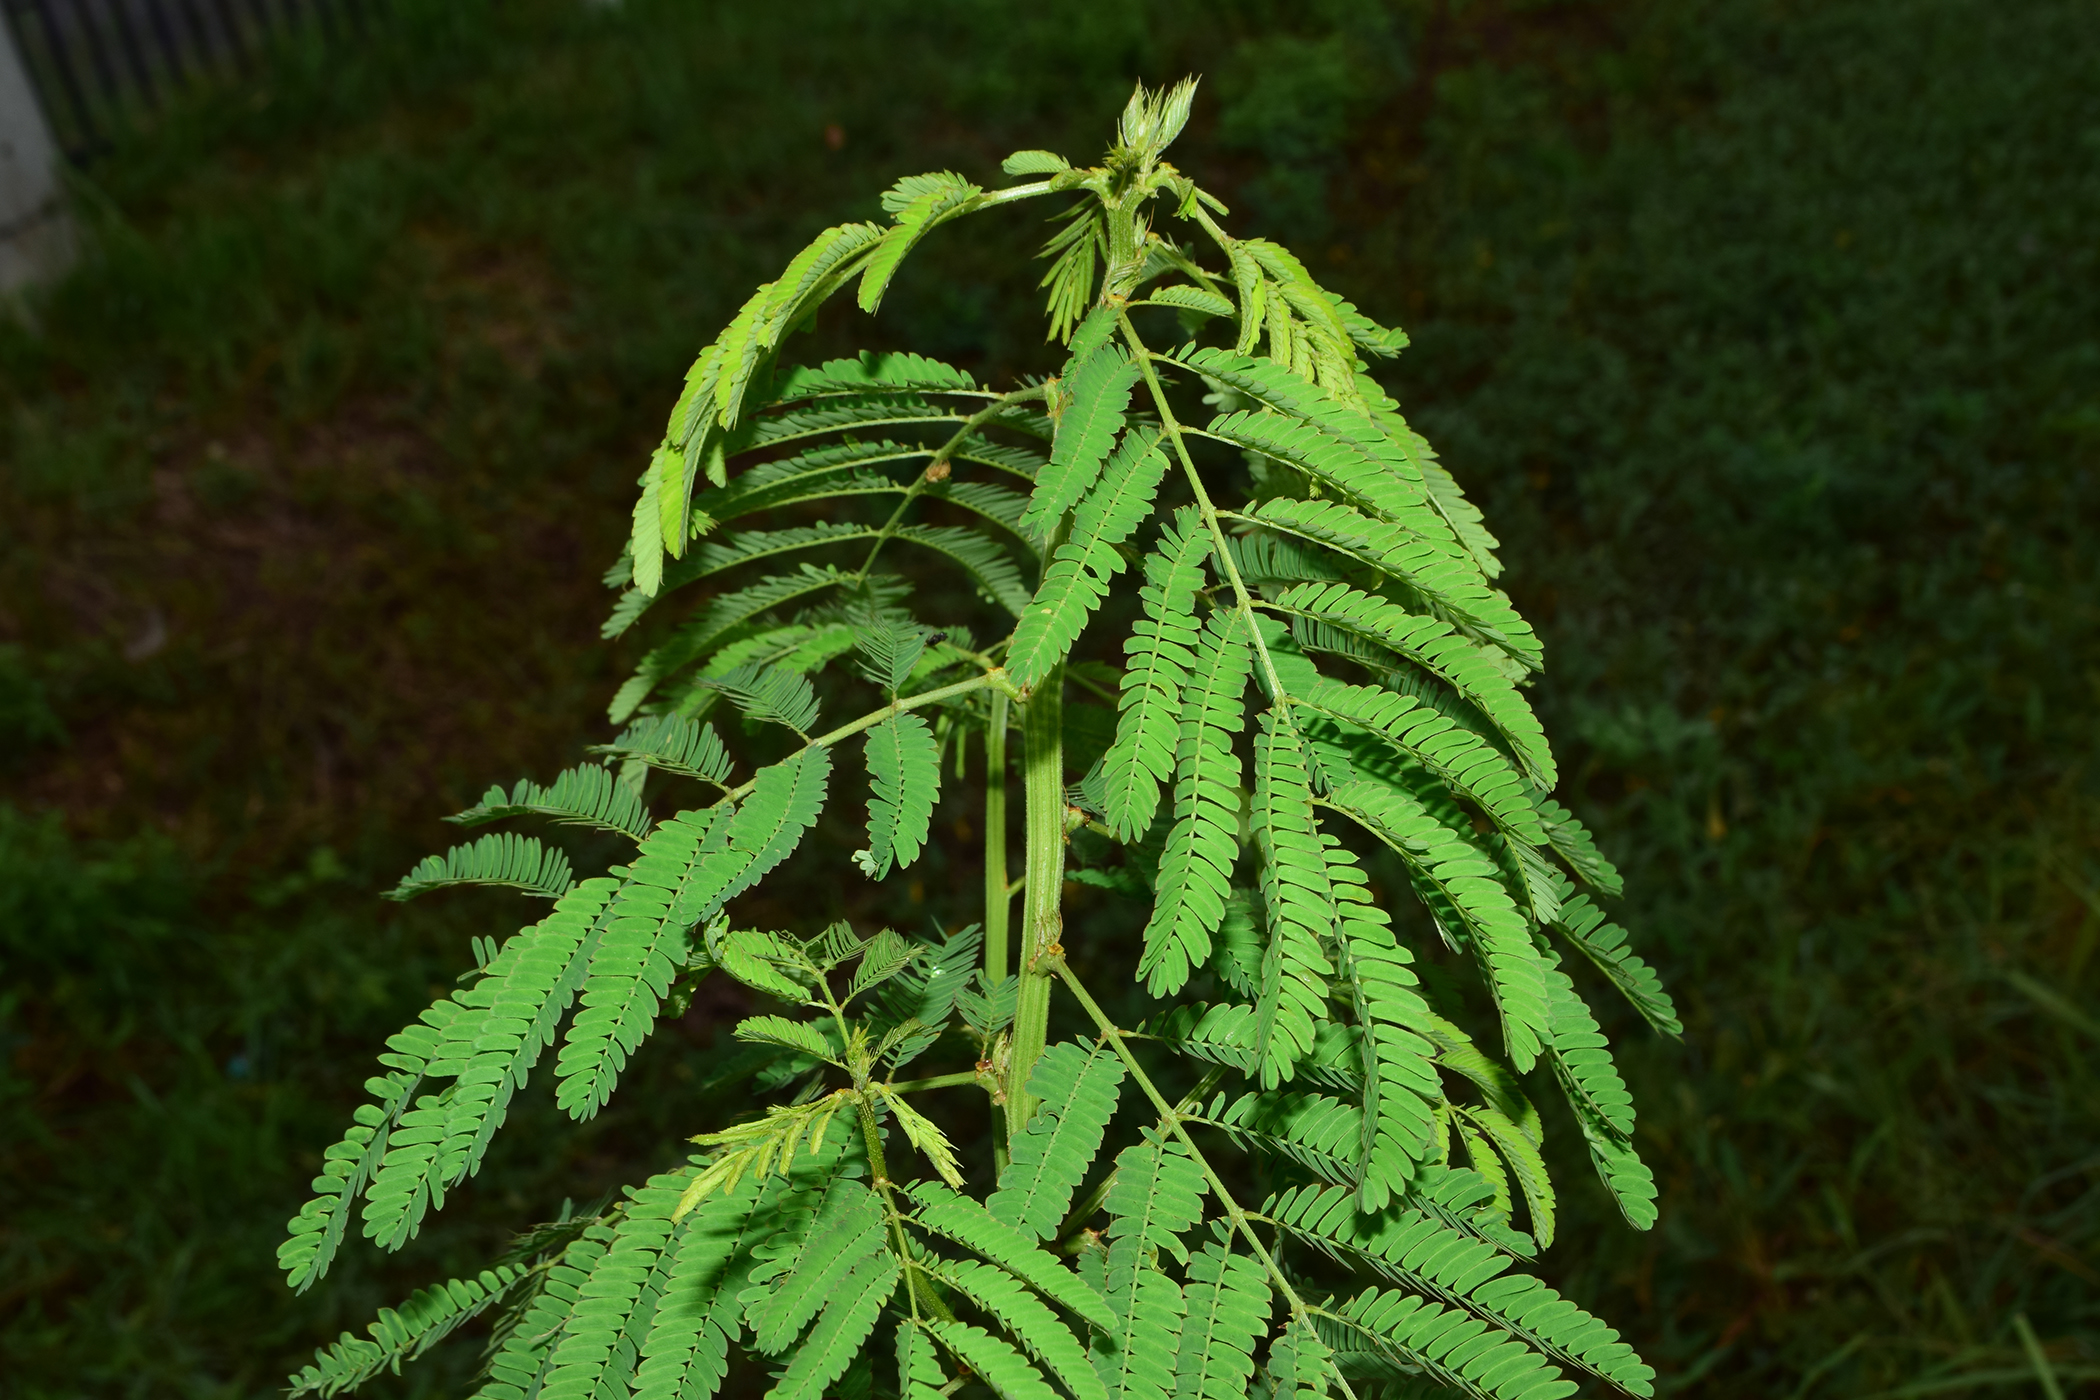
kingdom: Plantae
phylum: Tracheophyta
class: Magnoliopsida
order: Fabales
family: Fabaceae
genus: Desmanthus
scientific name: Desmanthus virgatus
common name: Wild tantan
